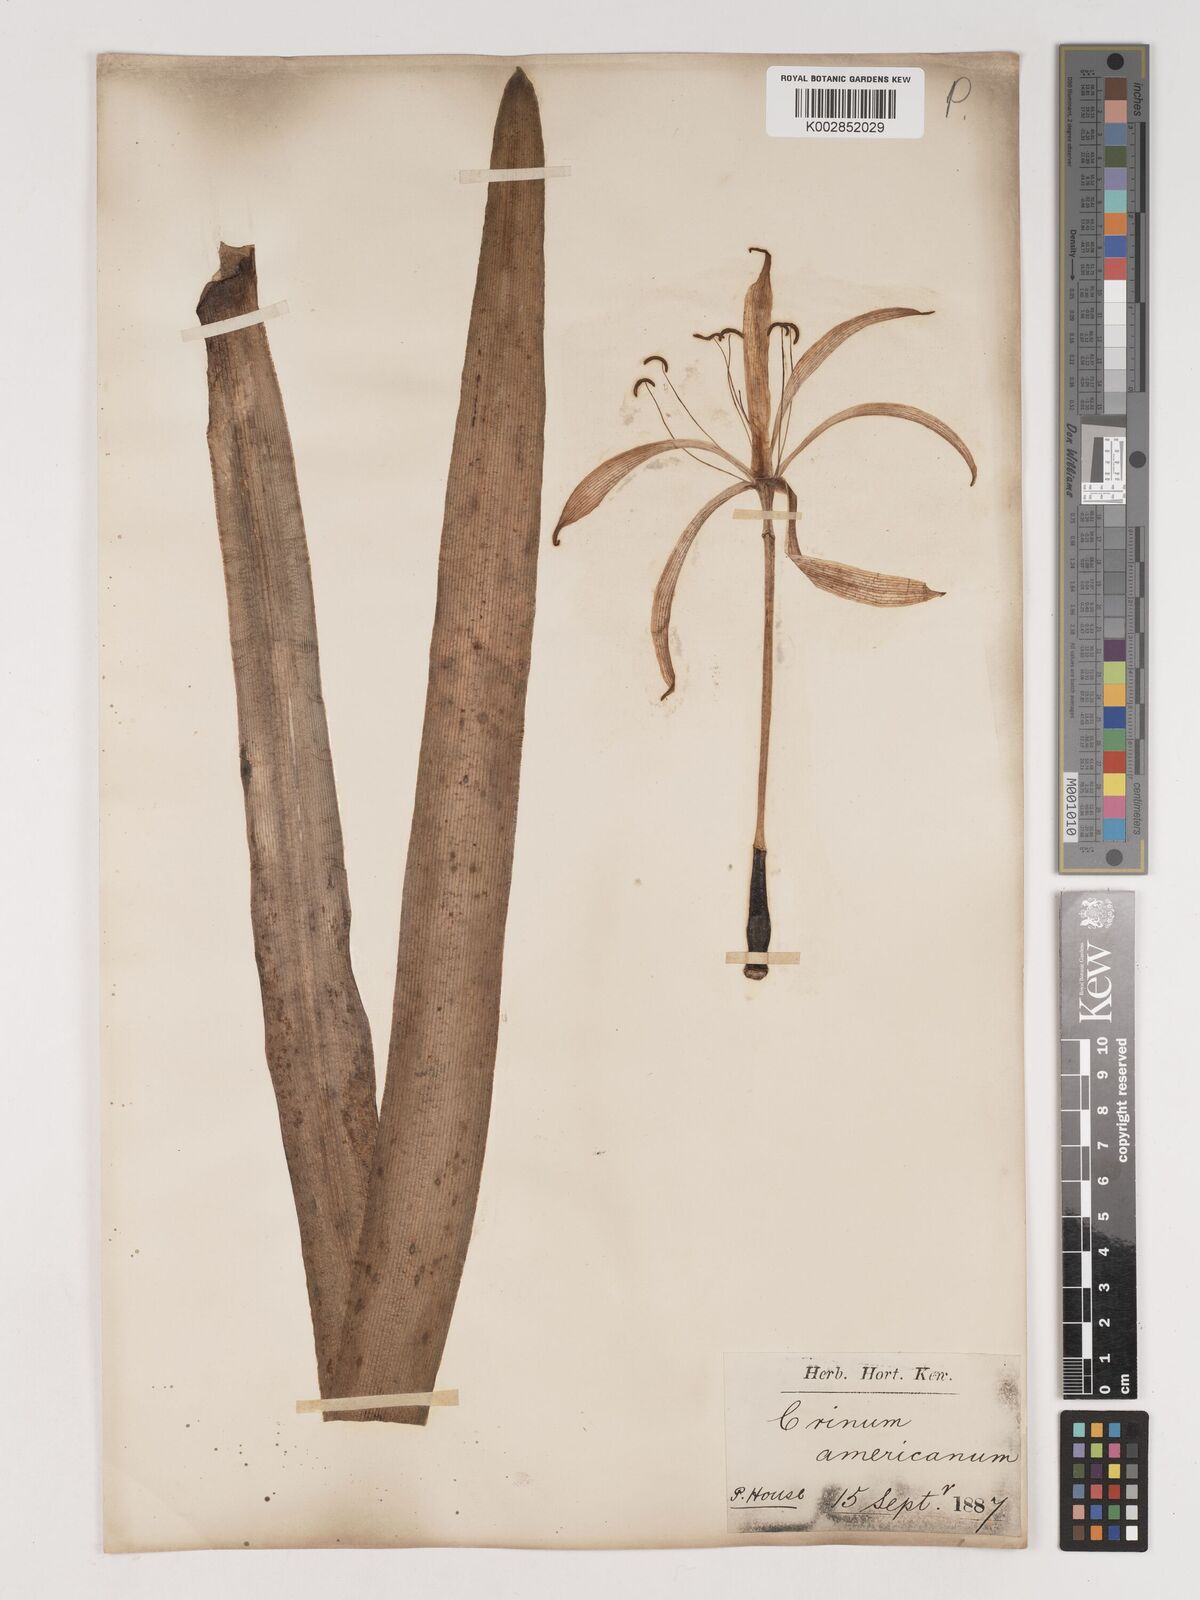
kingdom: Plantae
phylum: Tracheophyta
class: Liliopsida
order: Asparagales
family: Amaryllidaceae
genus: Crinum
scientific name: Crinum americanum
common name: Florida swamp-lily
